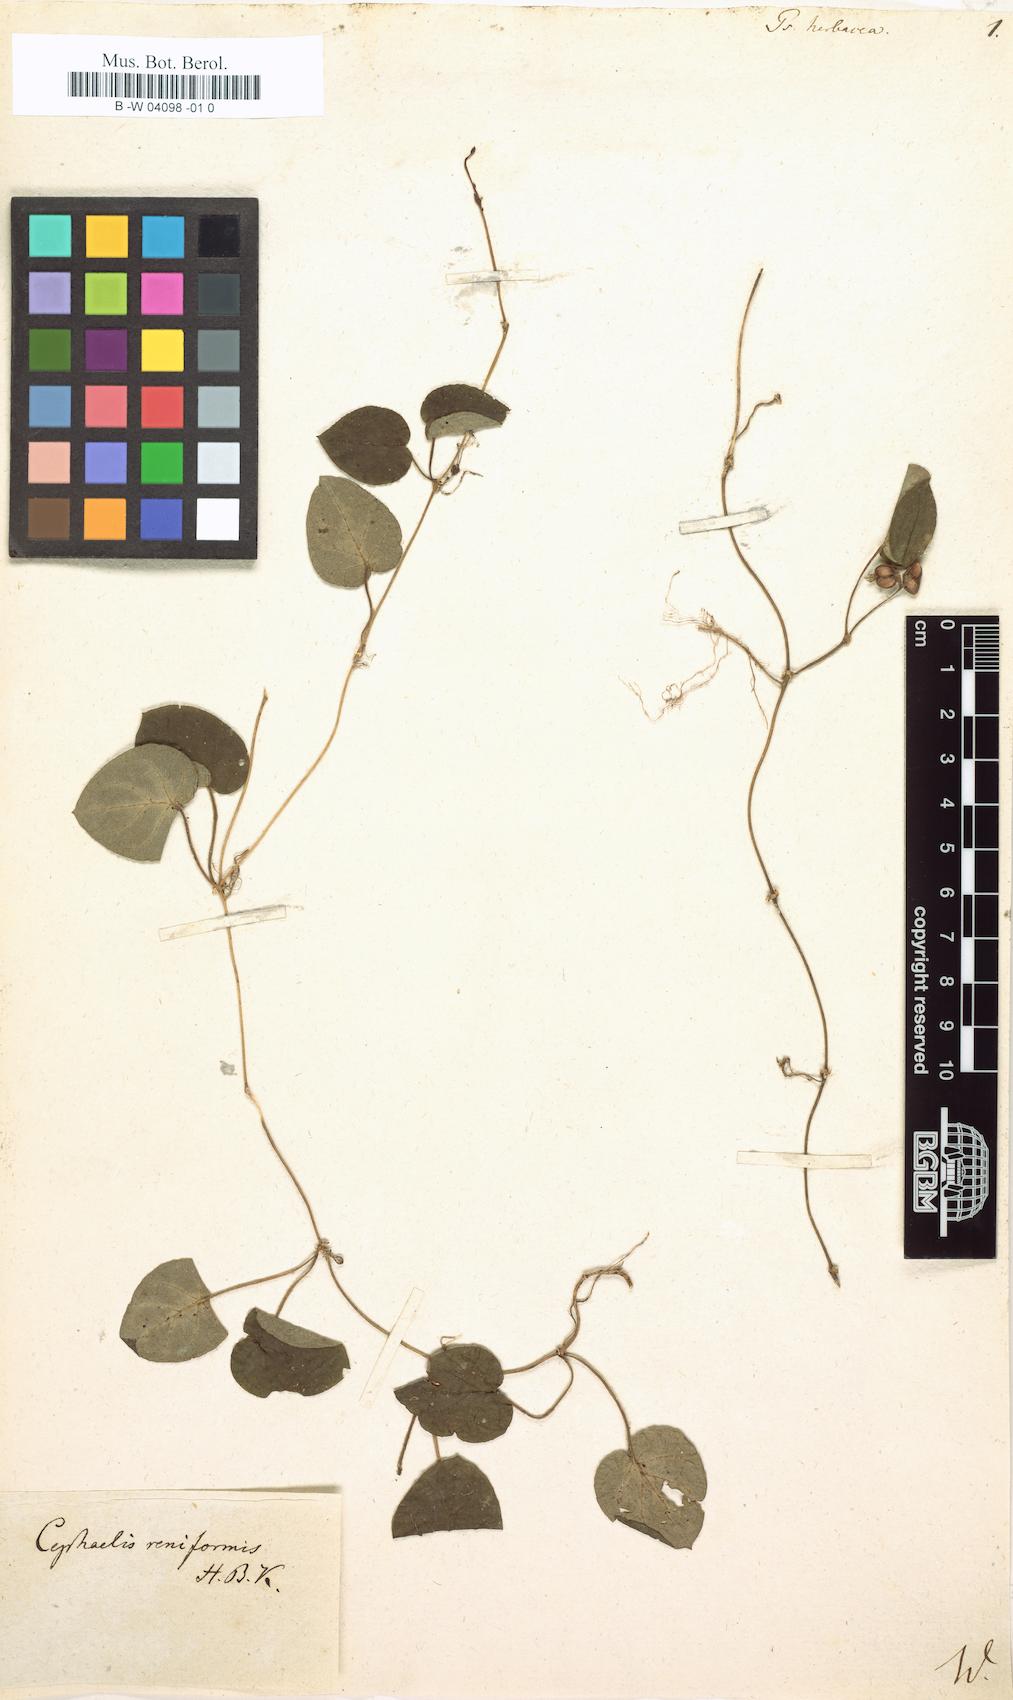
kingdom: Plantae
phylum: Tracheophyta
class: Magnoliopsida
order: Gentianales
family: Rubiaceae
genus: Geophila
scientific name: Geophila herbacea
